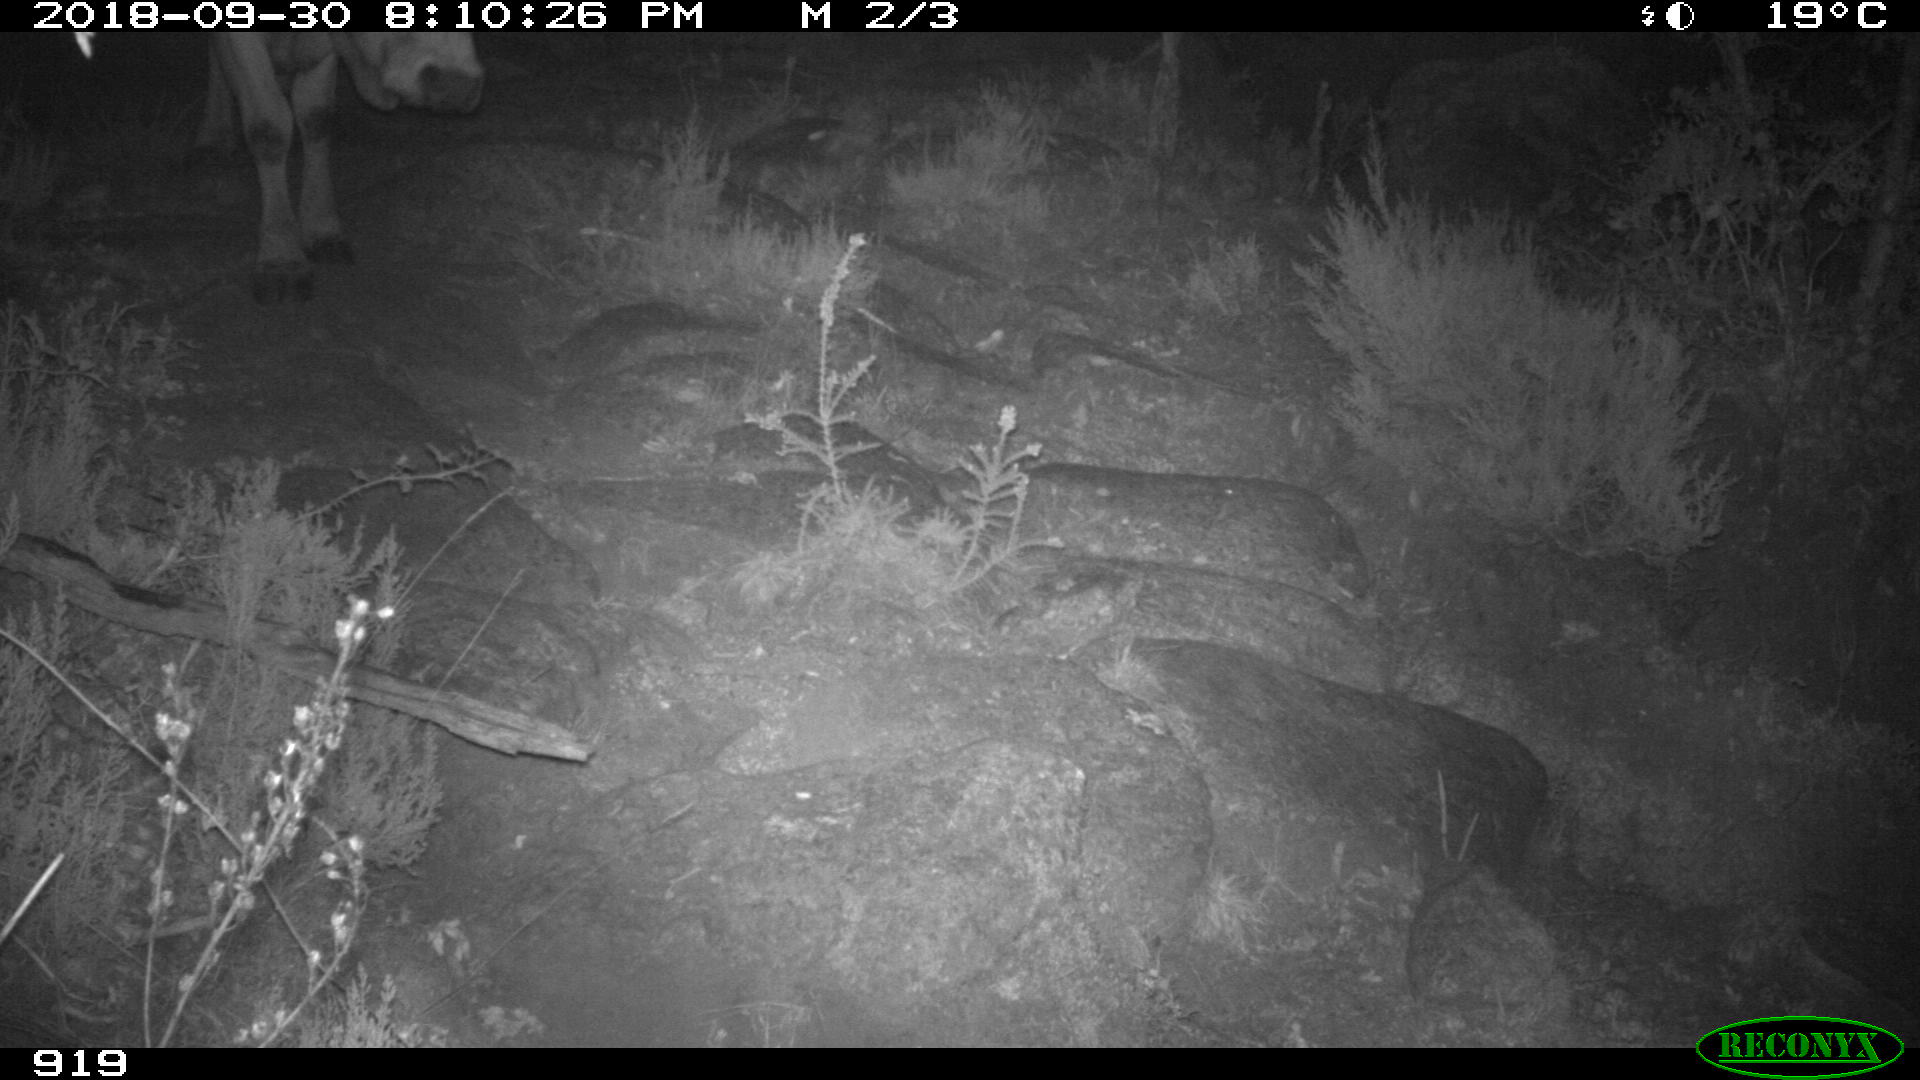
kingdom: Animalia
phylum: Chordata
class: Mammalia
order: Artiodactyla
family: Bovidae
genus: Bos
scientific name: Bos taurus
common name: Domesticated cattle
